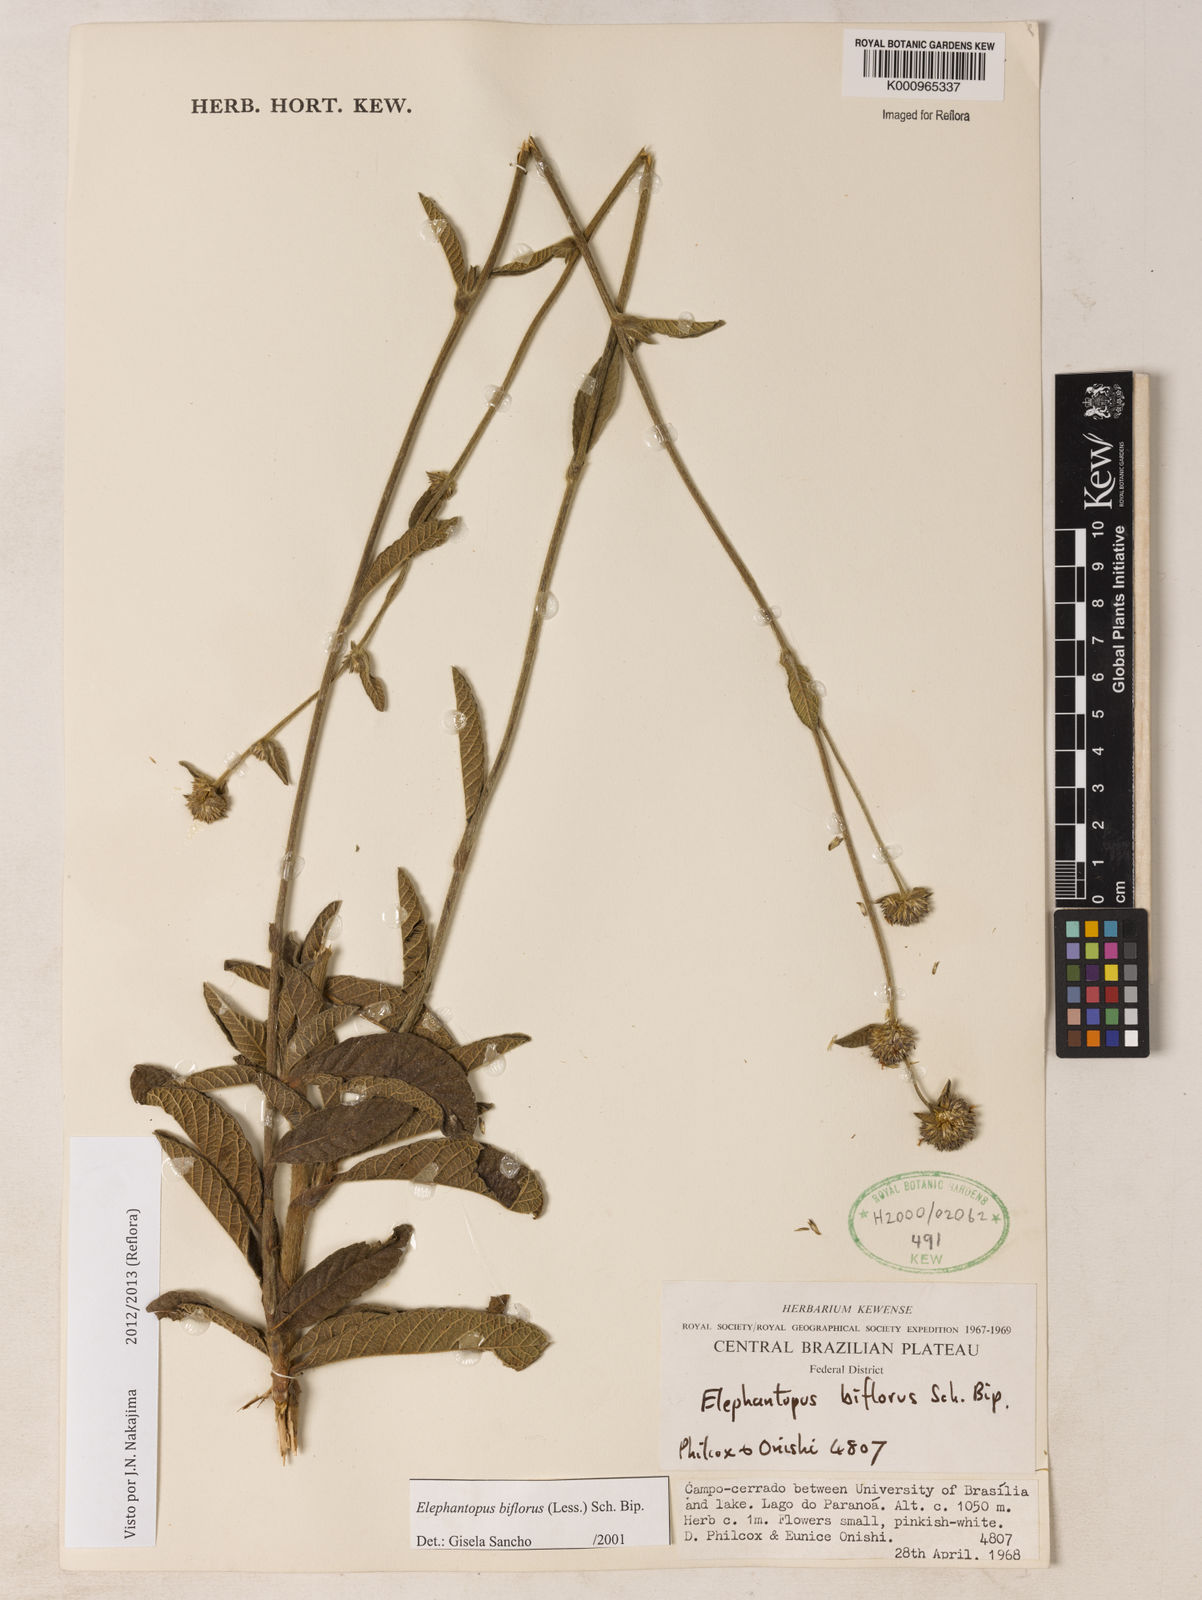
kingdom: Plantae
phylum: Tracheophyta
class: Magnoliopsida
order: Asterales
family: Asteraceae
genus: Elephantopus
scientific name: Elephantopus biflorus
